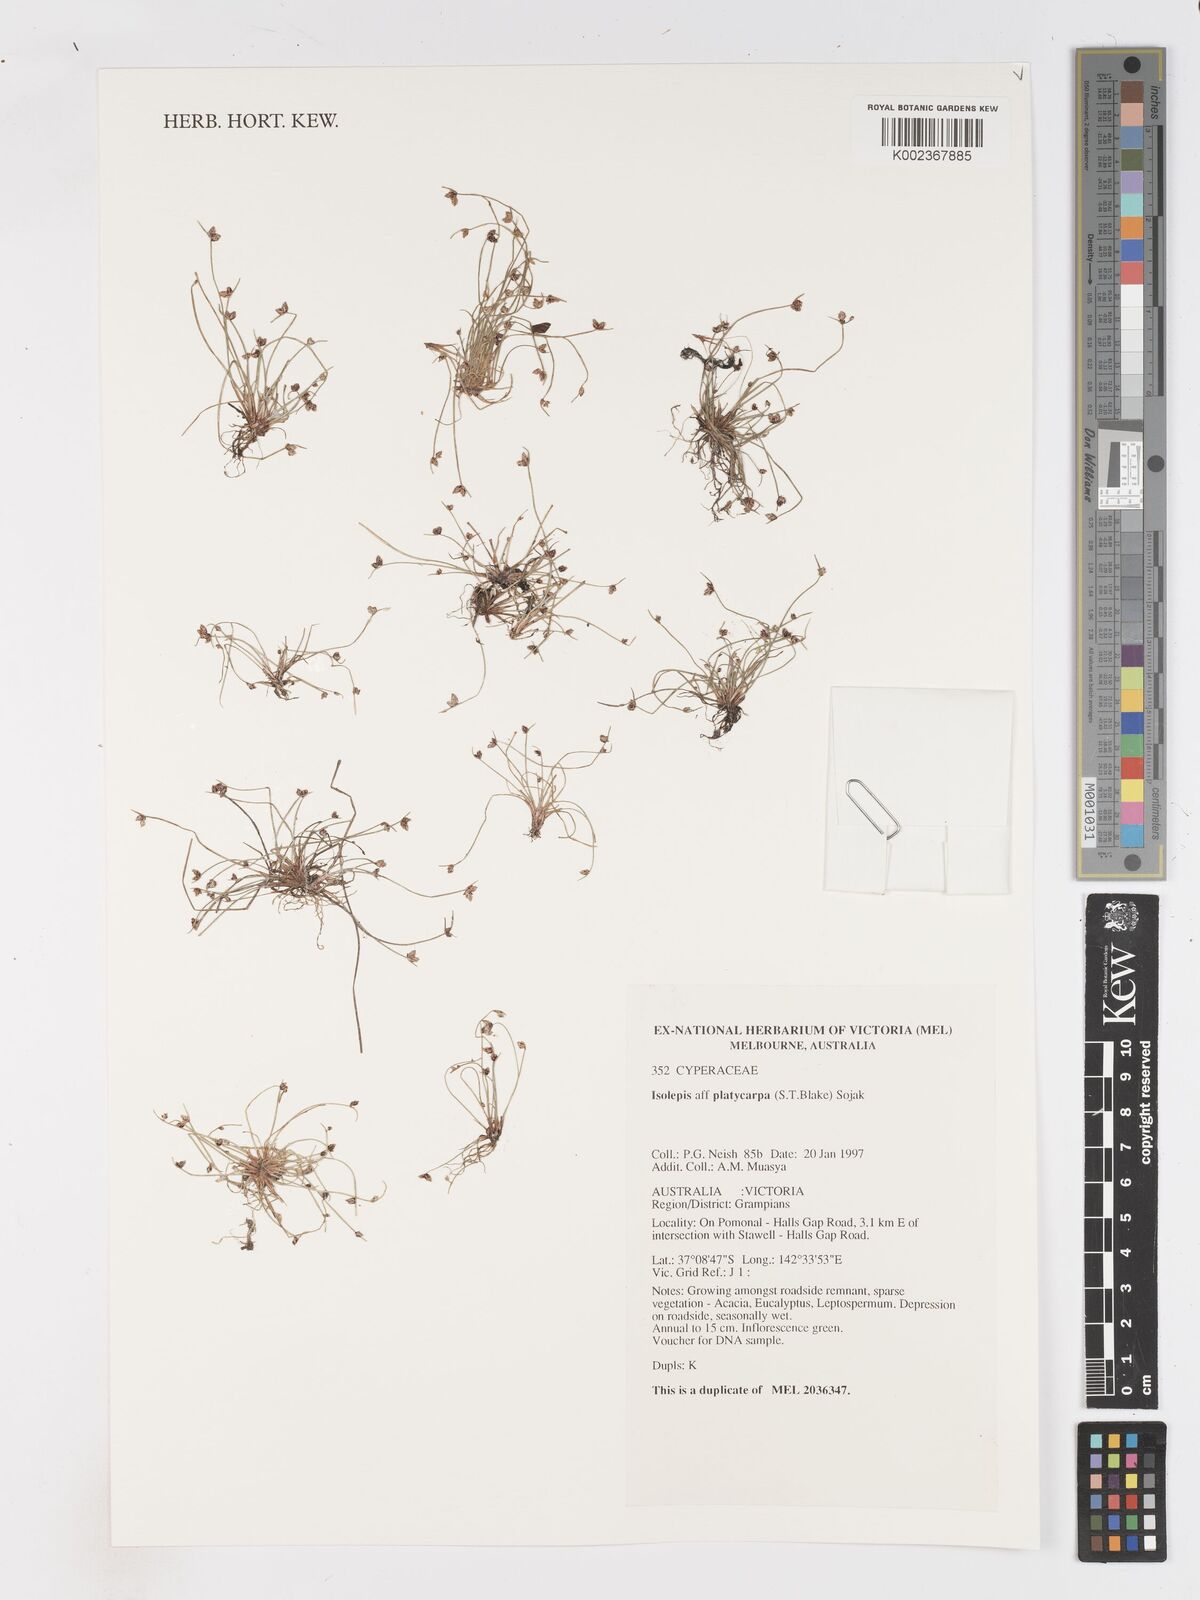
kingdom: Plantae
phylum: Tracheophyta
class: Liliopsida
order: Poales
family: Cyperaceae
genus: Isolepis
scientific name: Isolepis cernua
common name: Slender club-rush
